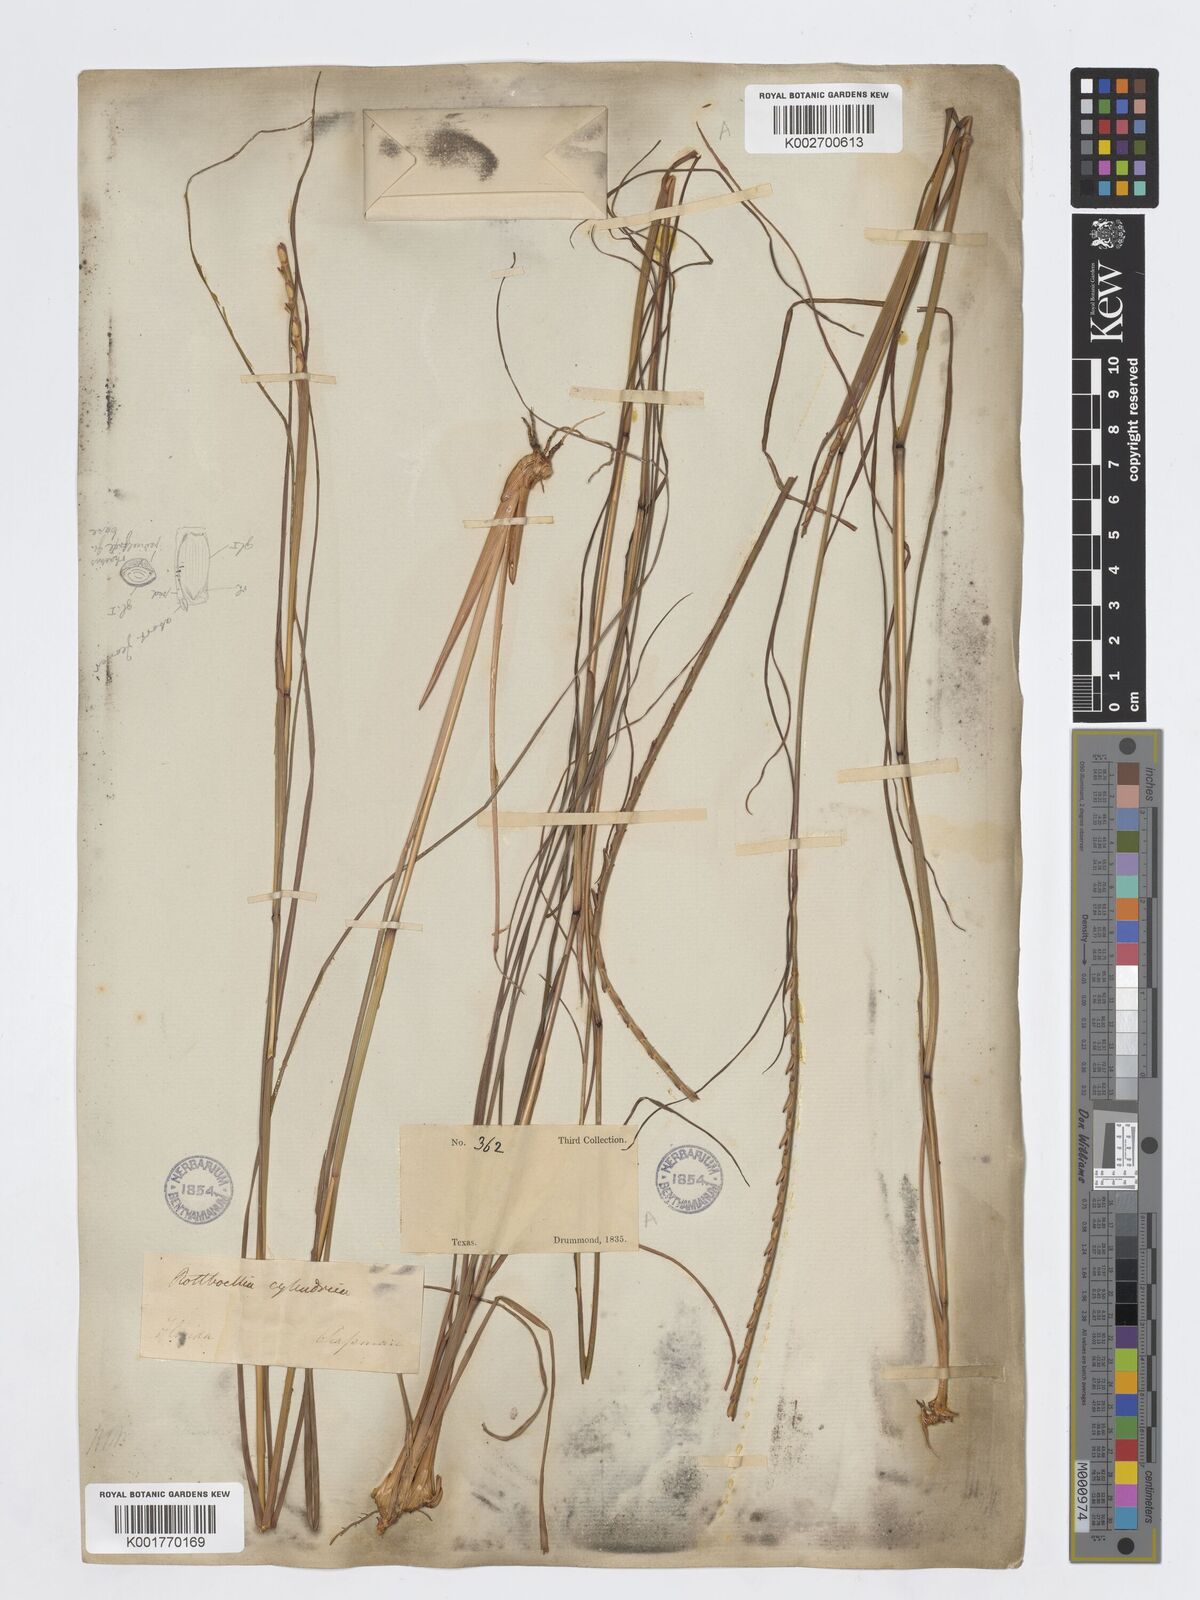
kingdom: Plantae
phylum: Tracheophyta
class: Liliopsida
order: Poales
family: Poaceae
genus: Parapholis
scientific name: Parapholis cylindrica
